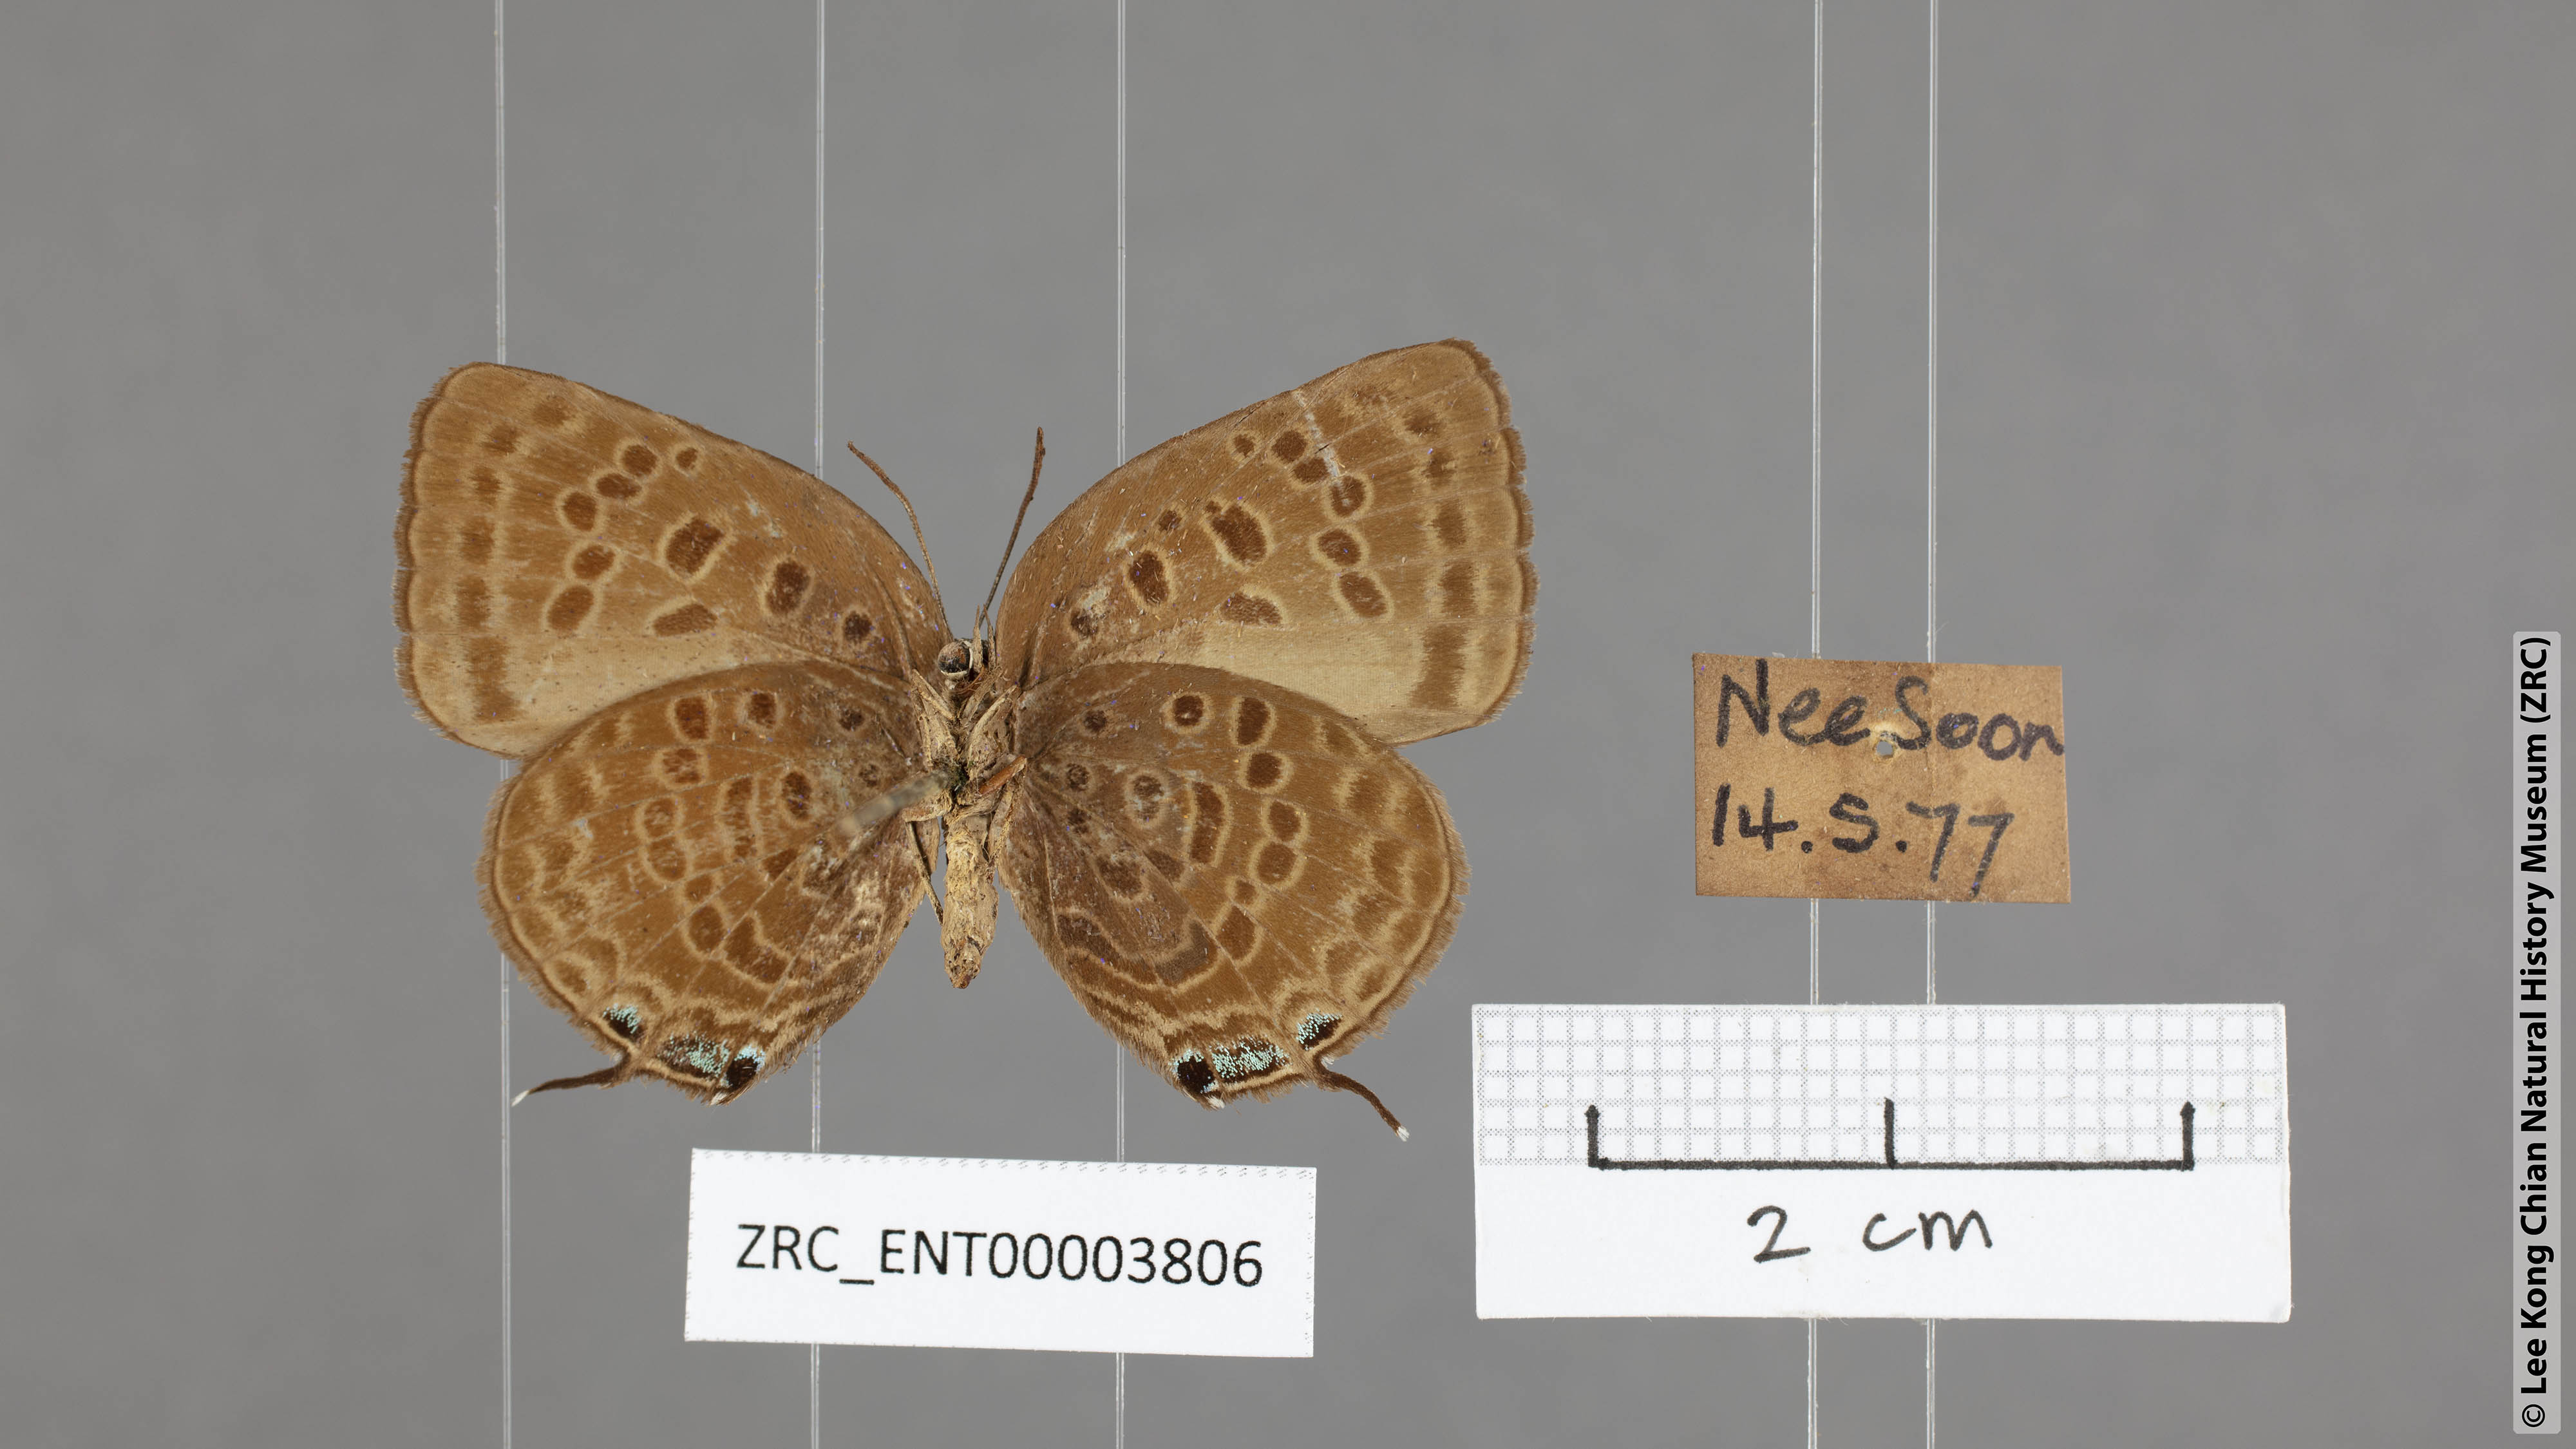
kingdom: Animalia
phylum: Arthropoda
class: Insecta
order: Lepidoptera
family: Lycaenidae
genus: Arhopala
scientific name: Arhopala aedias
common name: Large metallic oakblue
